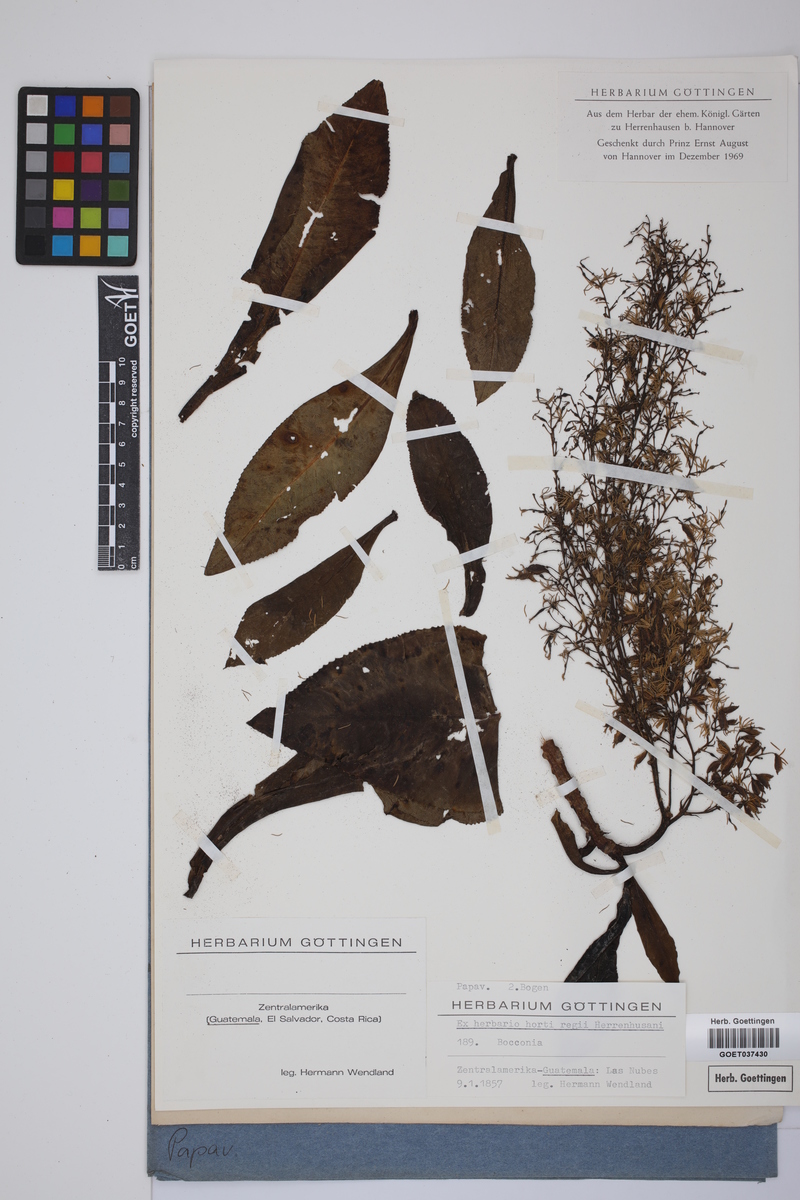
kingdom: Plantae
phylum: Tracheophyta
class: Magnoliopsida
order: Ranunculales
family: Papaveraceae
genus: Bocconia
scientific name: Bocconia
